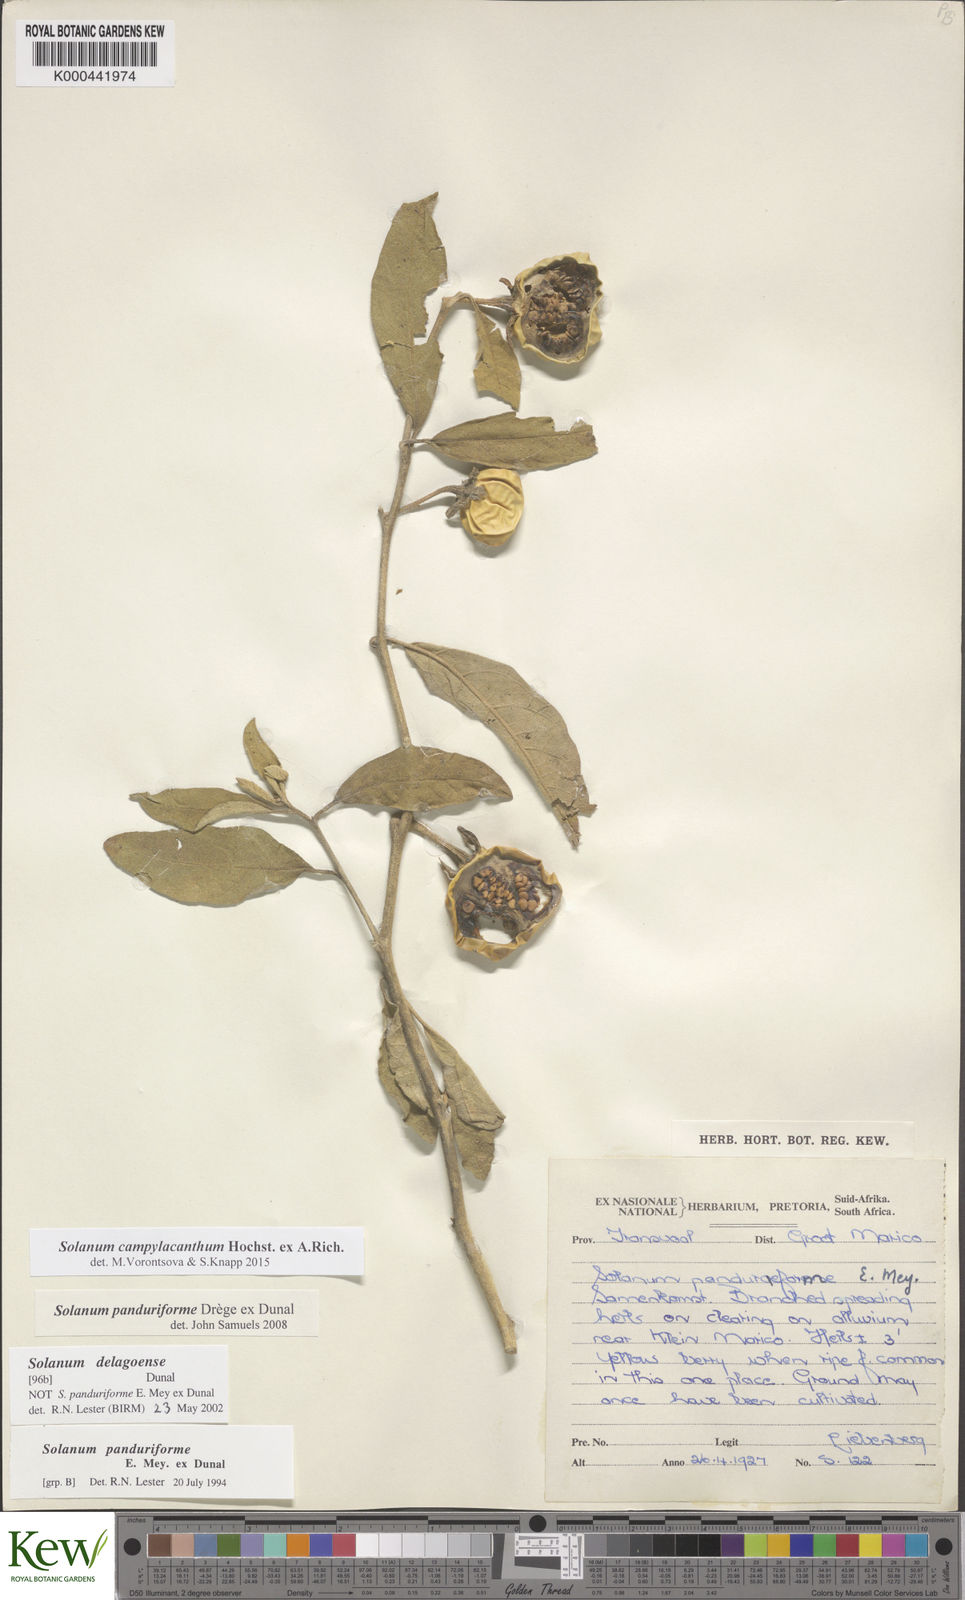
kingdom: Plantae
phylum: Tracheophyta
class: Magnoliopsida
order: Solanales
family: Solanaceae
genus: Solanum
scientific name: Solanum campylacanthum
